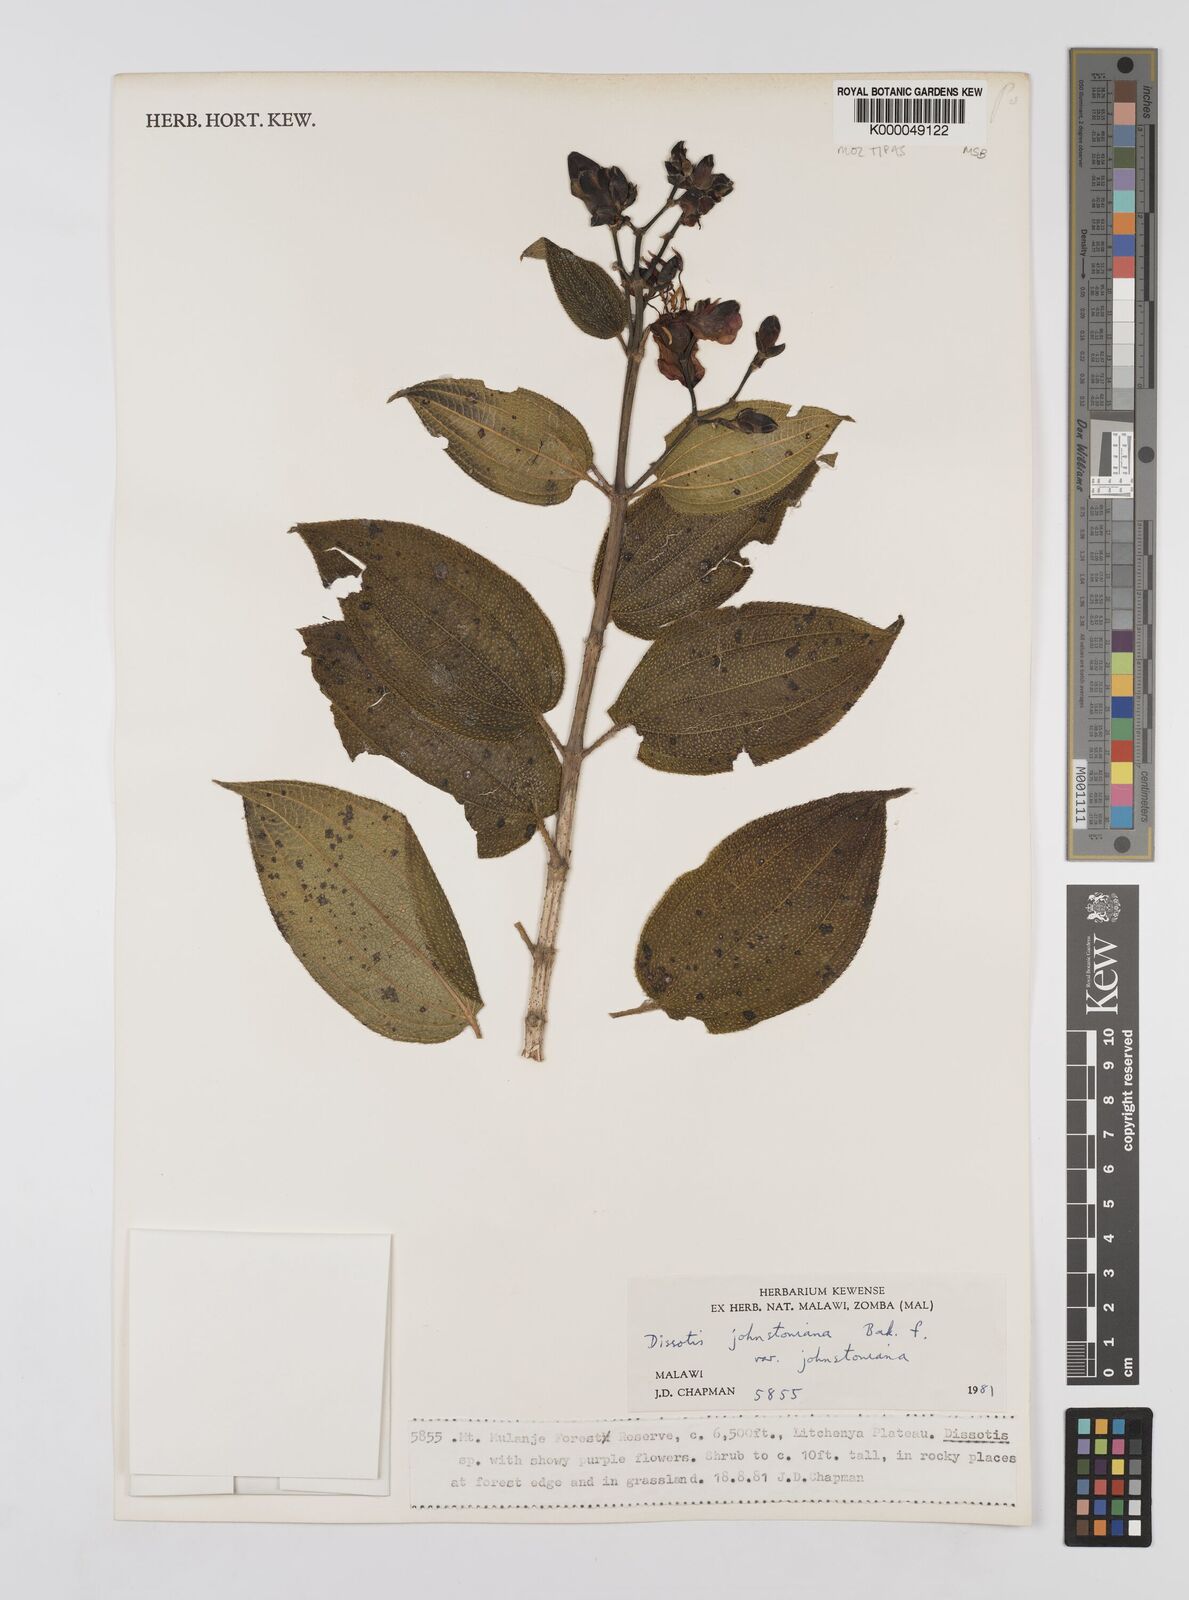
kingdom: Plantae
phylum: Tracheophyta
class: Magnoliopsida
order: Myrtales
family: Melastomataceae
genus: Dissotidendron
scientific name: Dissotidendron johnstonianum
